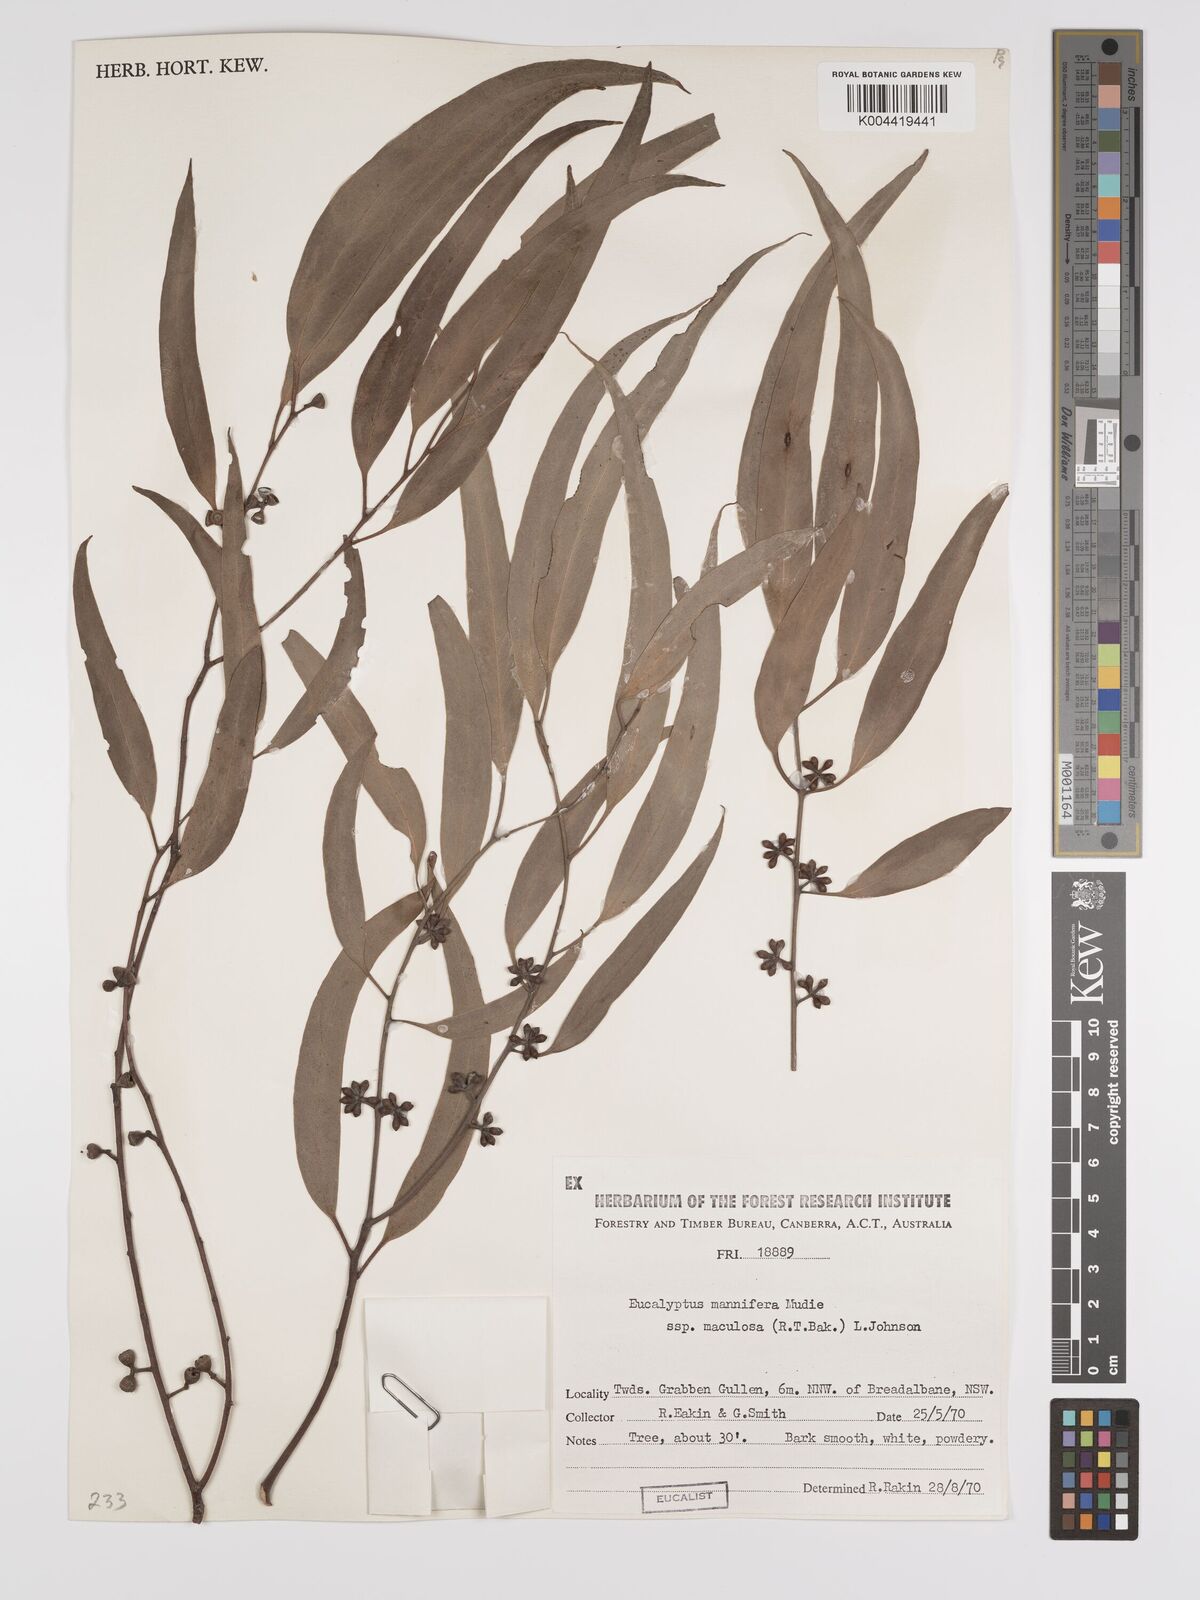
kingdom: Plantae
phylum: Tracheophyta
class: Magnoliopsida
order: Myrtales
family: Myrtaceae
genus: Eucalyptus
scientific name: Eucalyptus mannifera
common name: Manna gum
